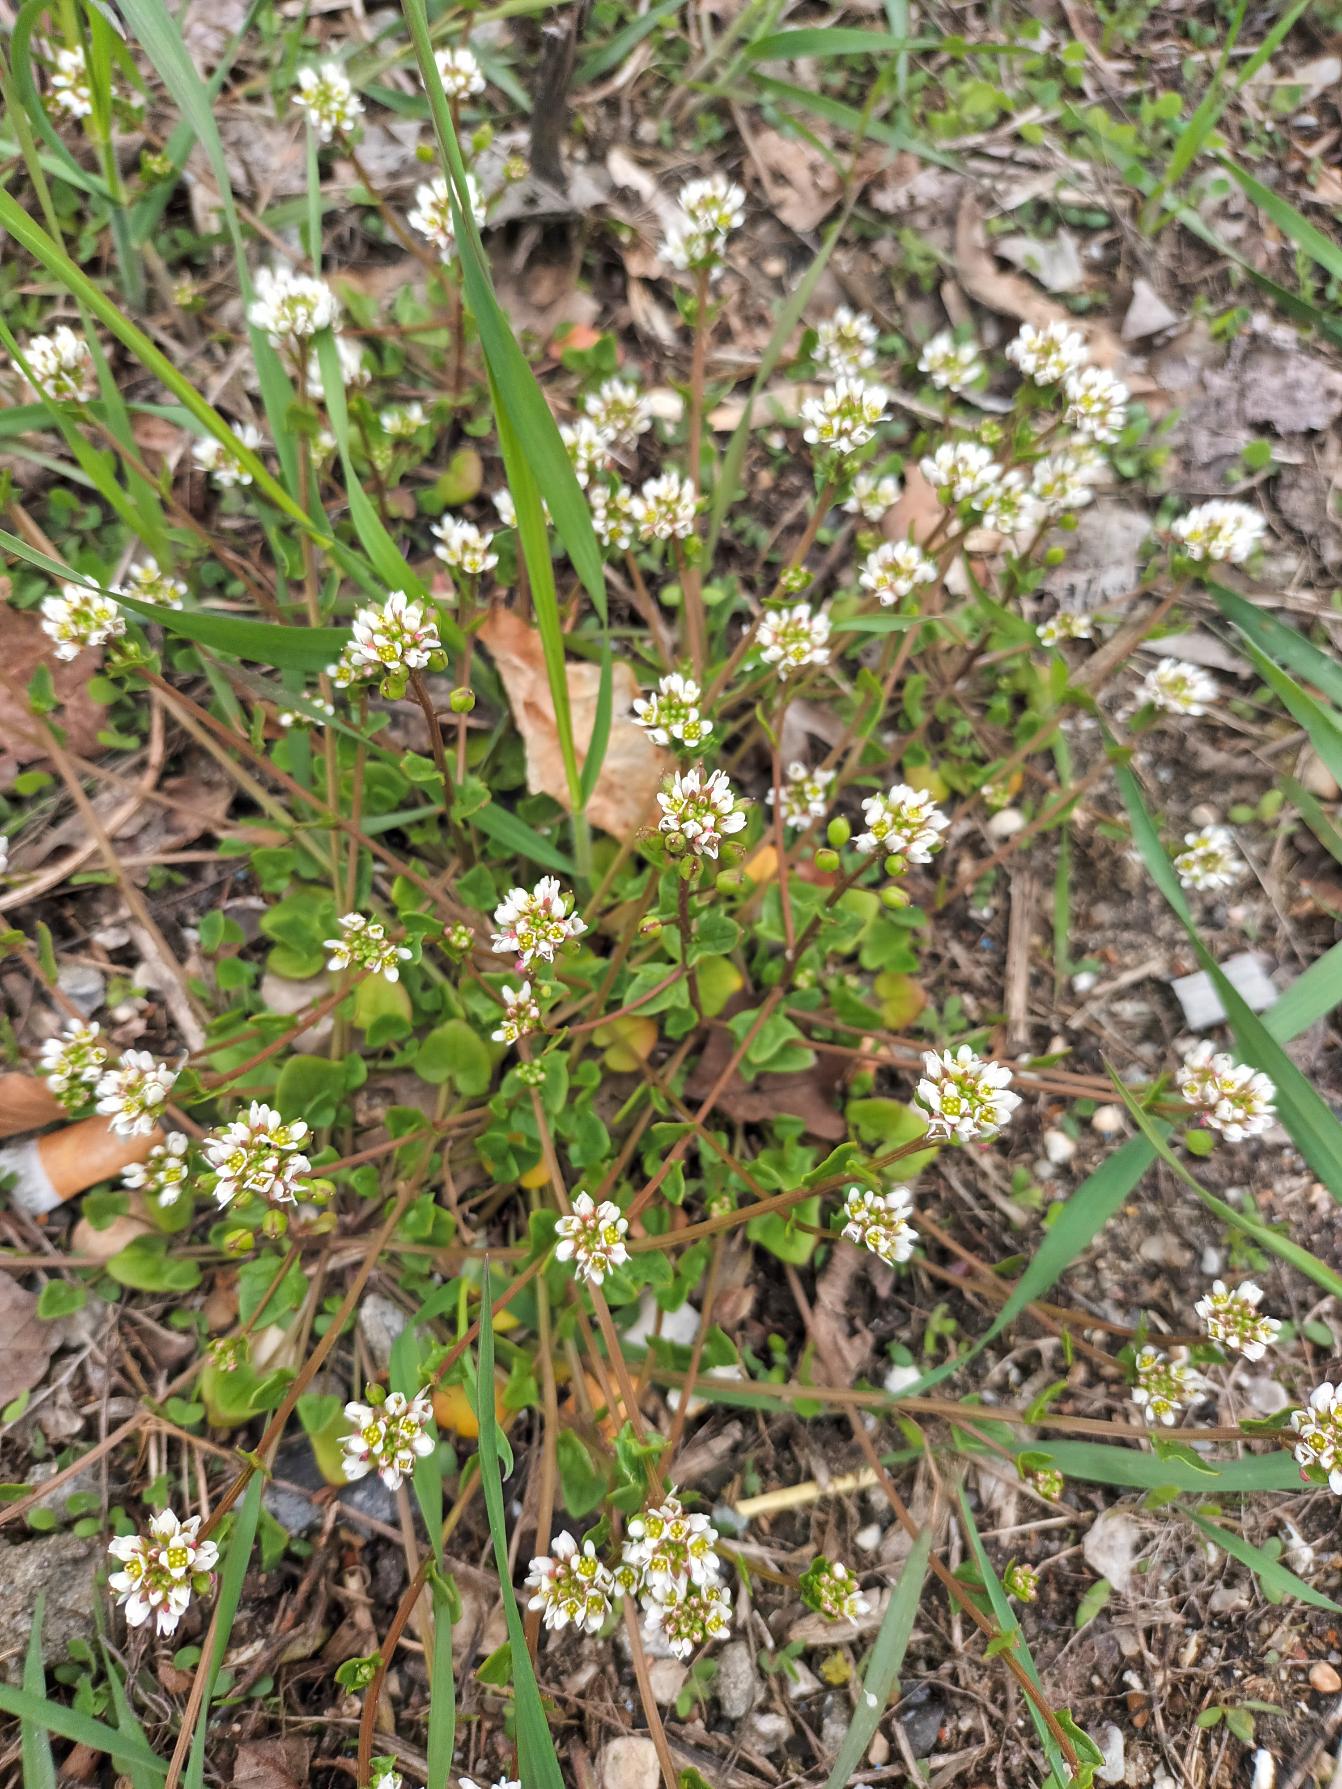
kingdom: Plantae
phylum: Tracheophyta
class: Magnoliopsida
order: Brassicales
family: Brassicaceae
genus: Cochlearia
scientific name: Cochlearia danica
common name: Dansk kokleare
